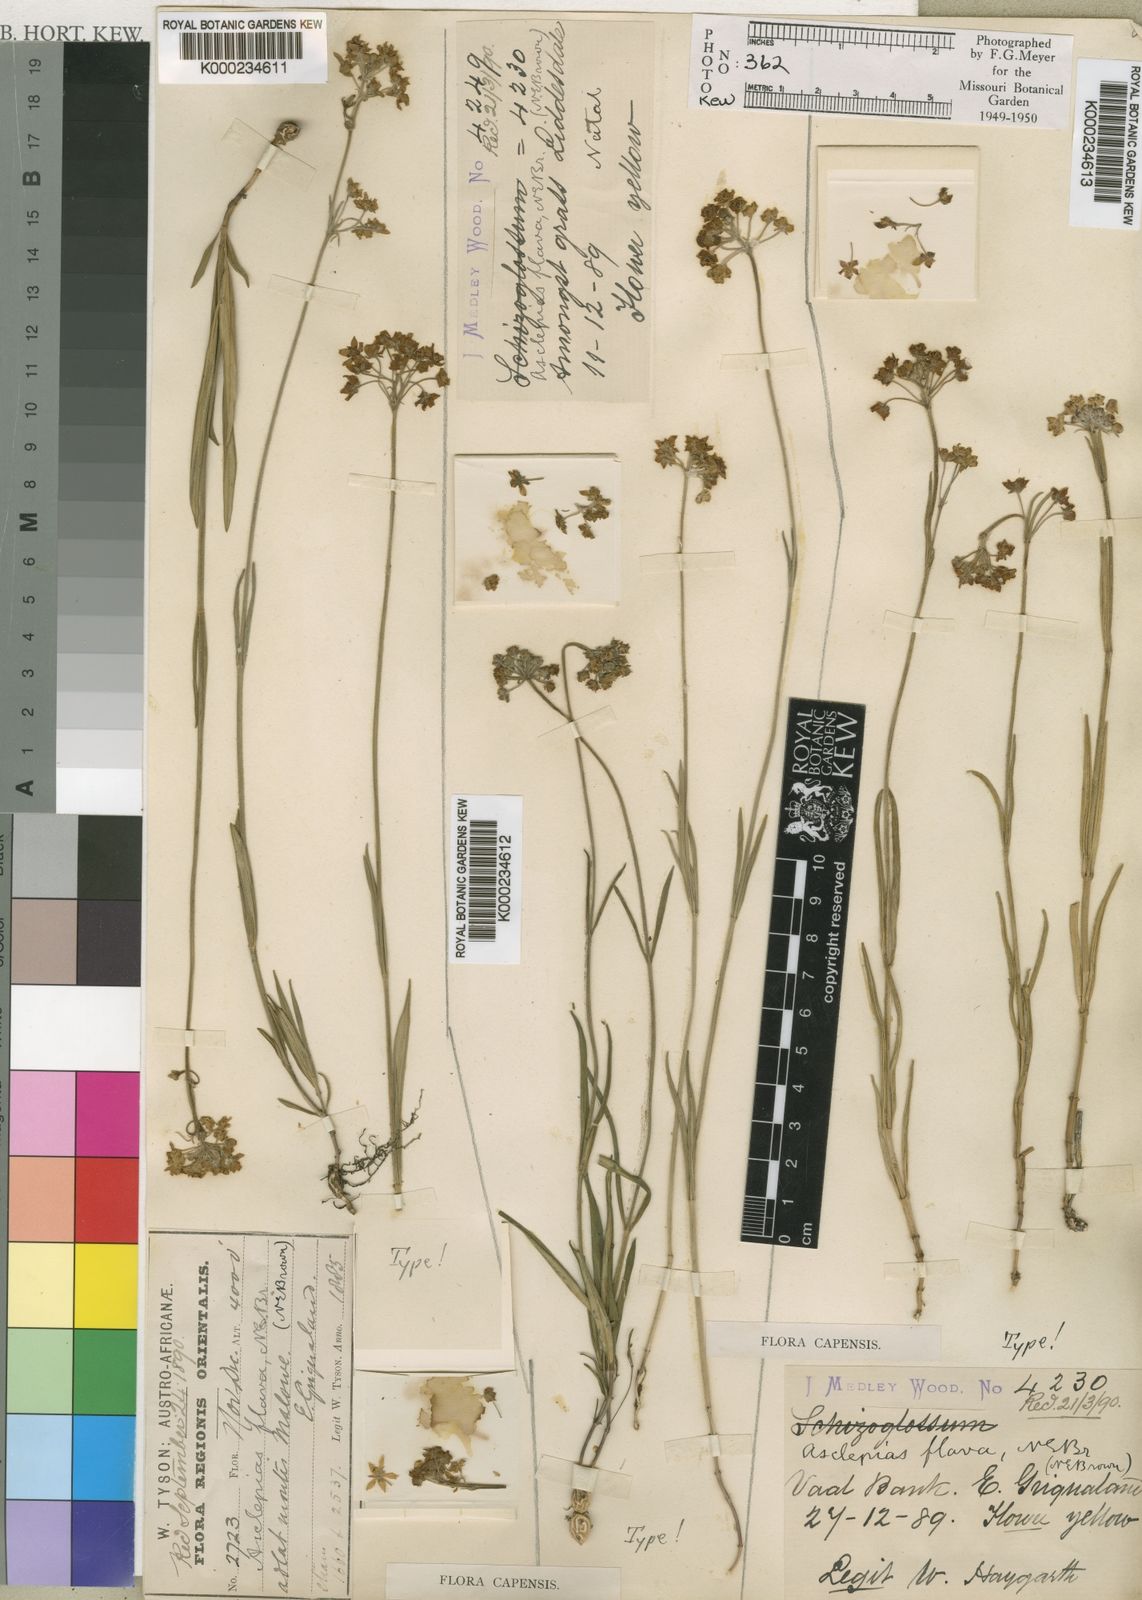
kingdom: Plantae
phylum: Tracheophyta
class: Magnoliopsida
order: Gentianales
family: Apocynaceae
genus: Aspidonepsis
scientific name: Aspidonepsis flava
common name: Small suncup
